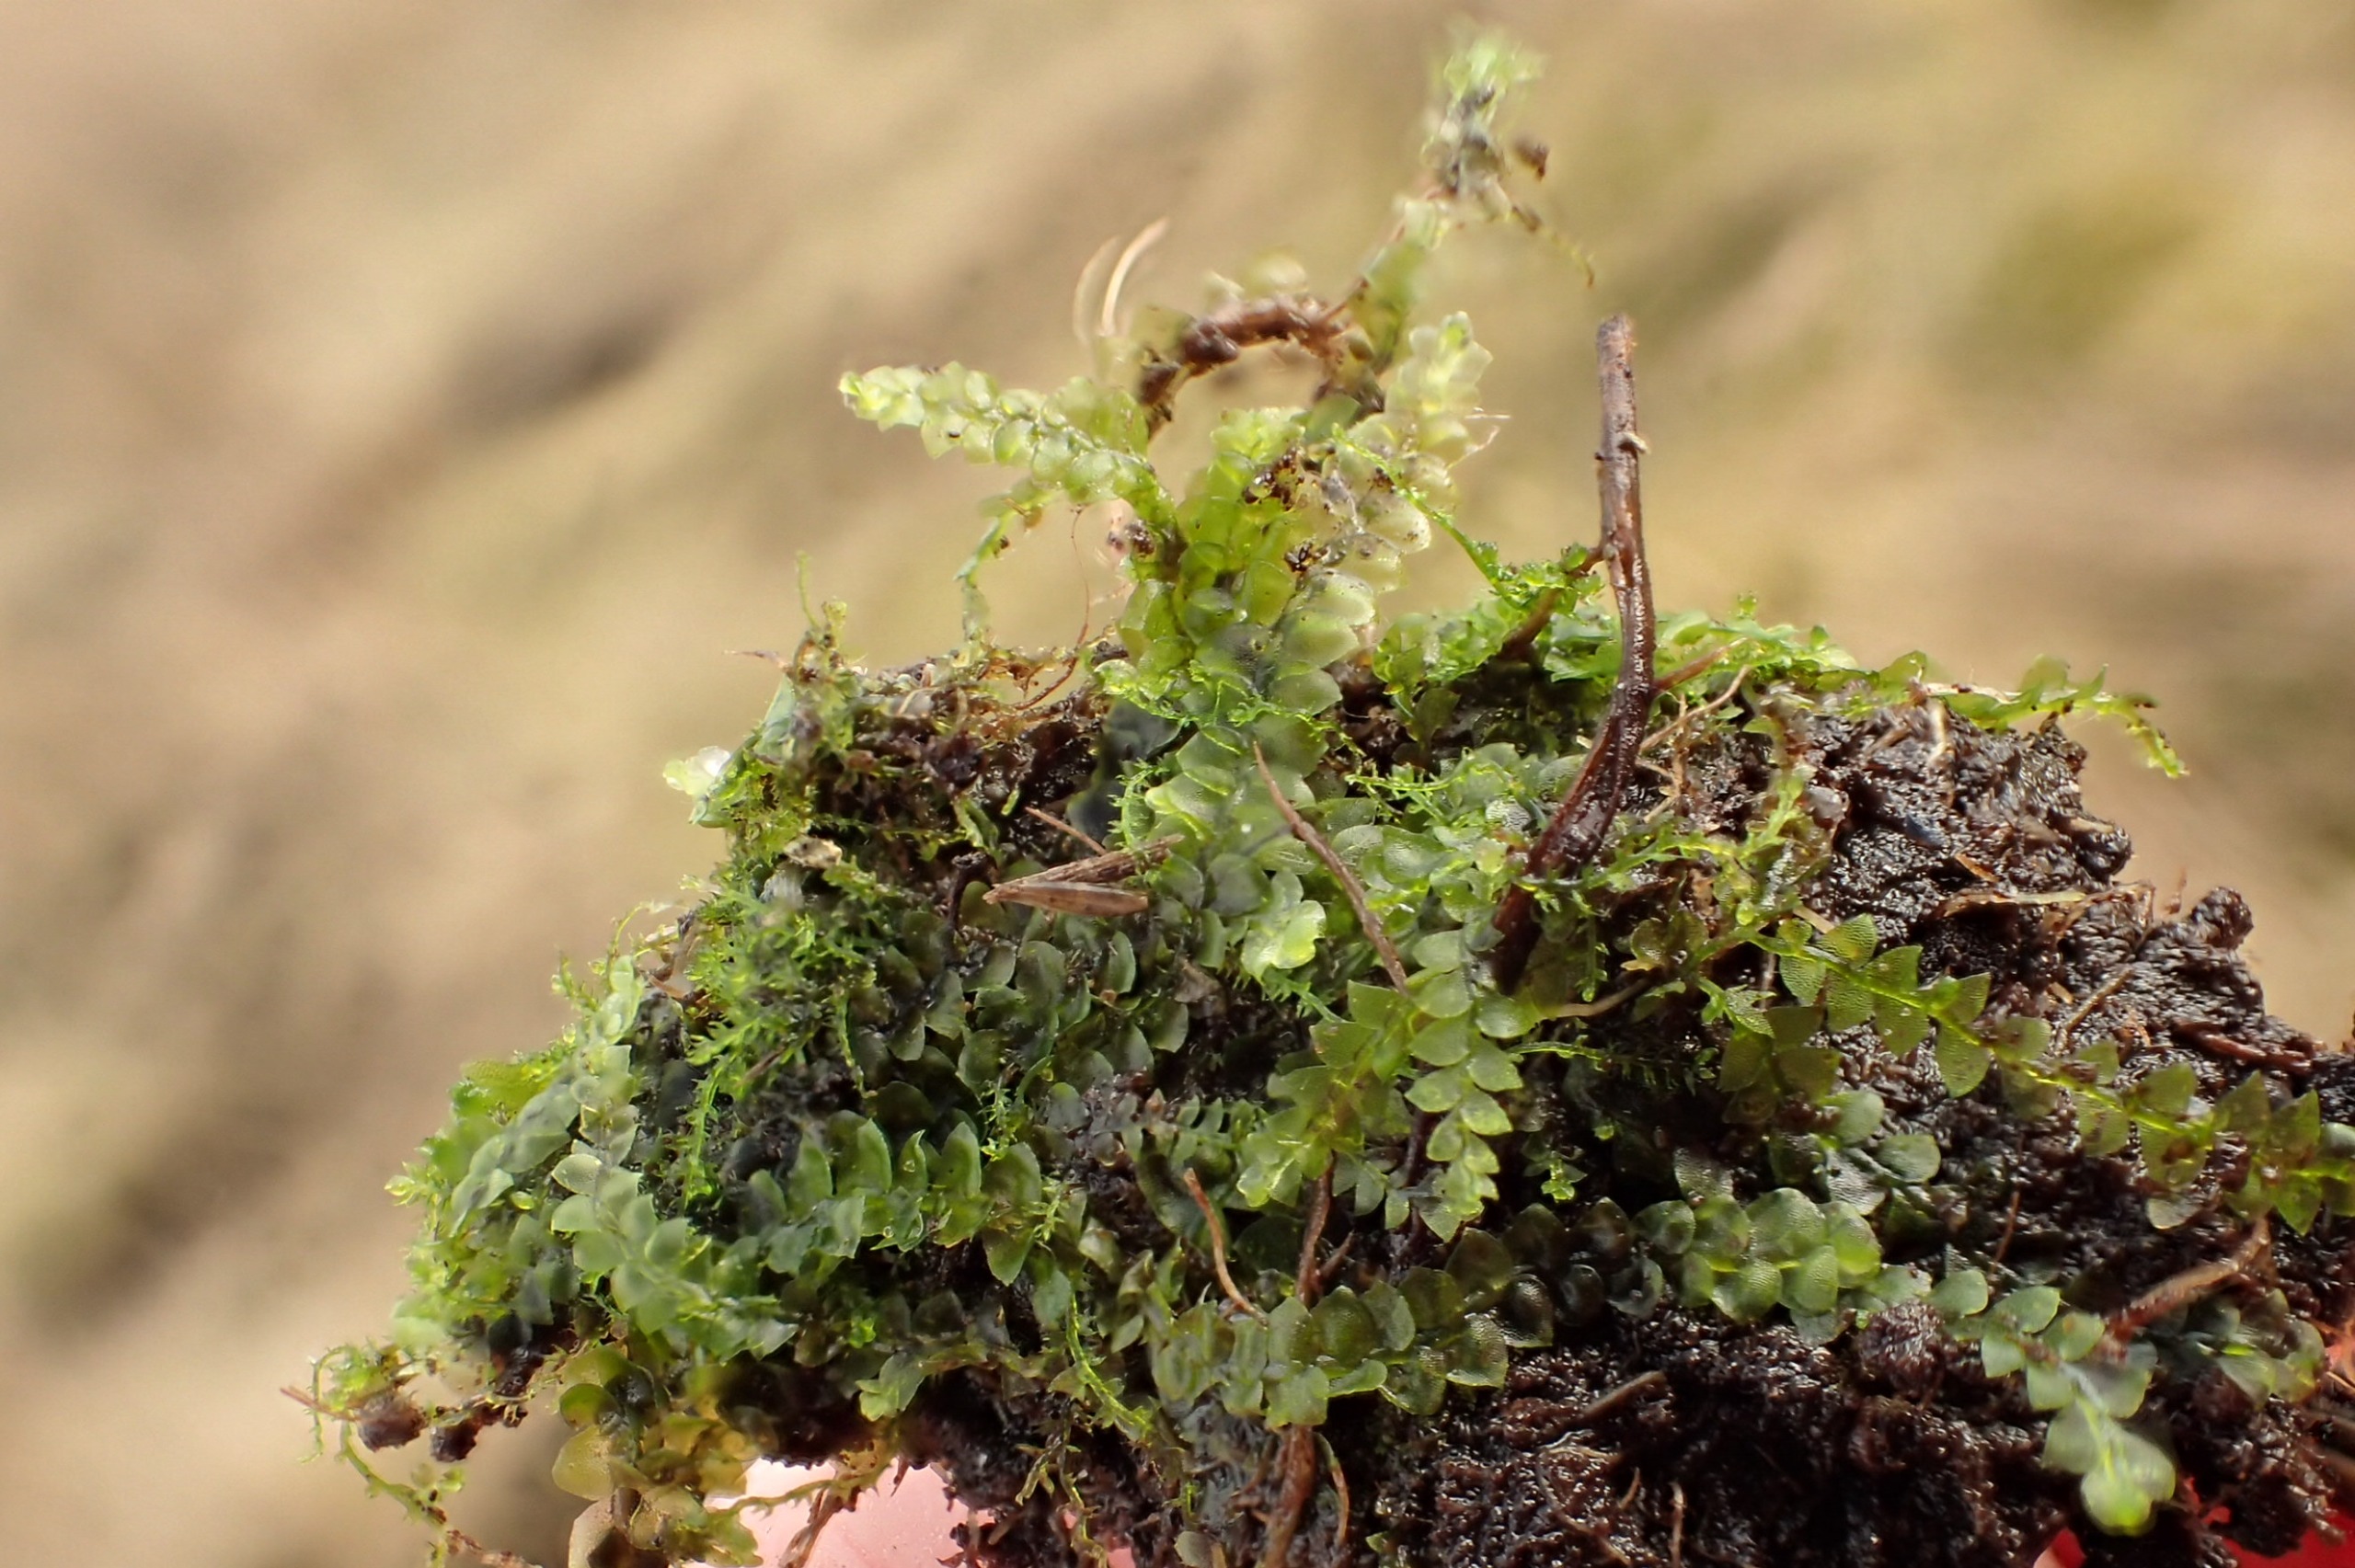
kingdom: Plantae
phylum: Marchantiophyta
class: Jungermanniopsida
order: Jungermanniales
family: Calypogeiaceae
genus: Calypogeia
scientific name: Calypogeia fissa
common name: Tvespidset sækmos
